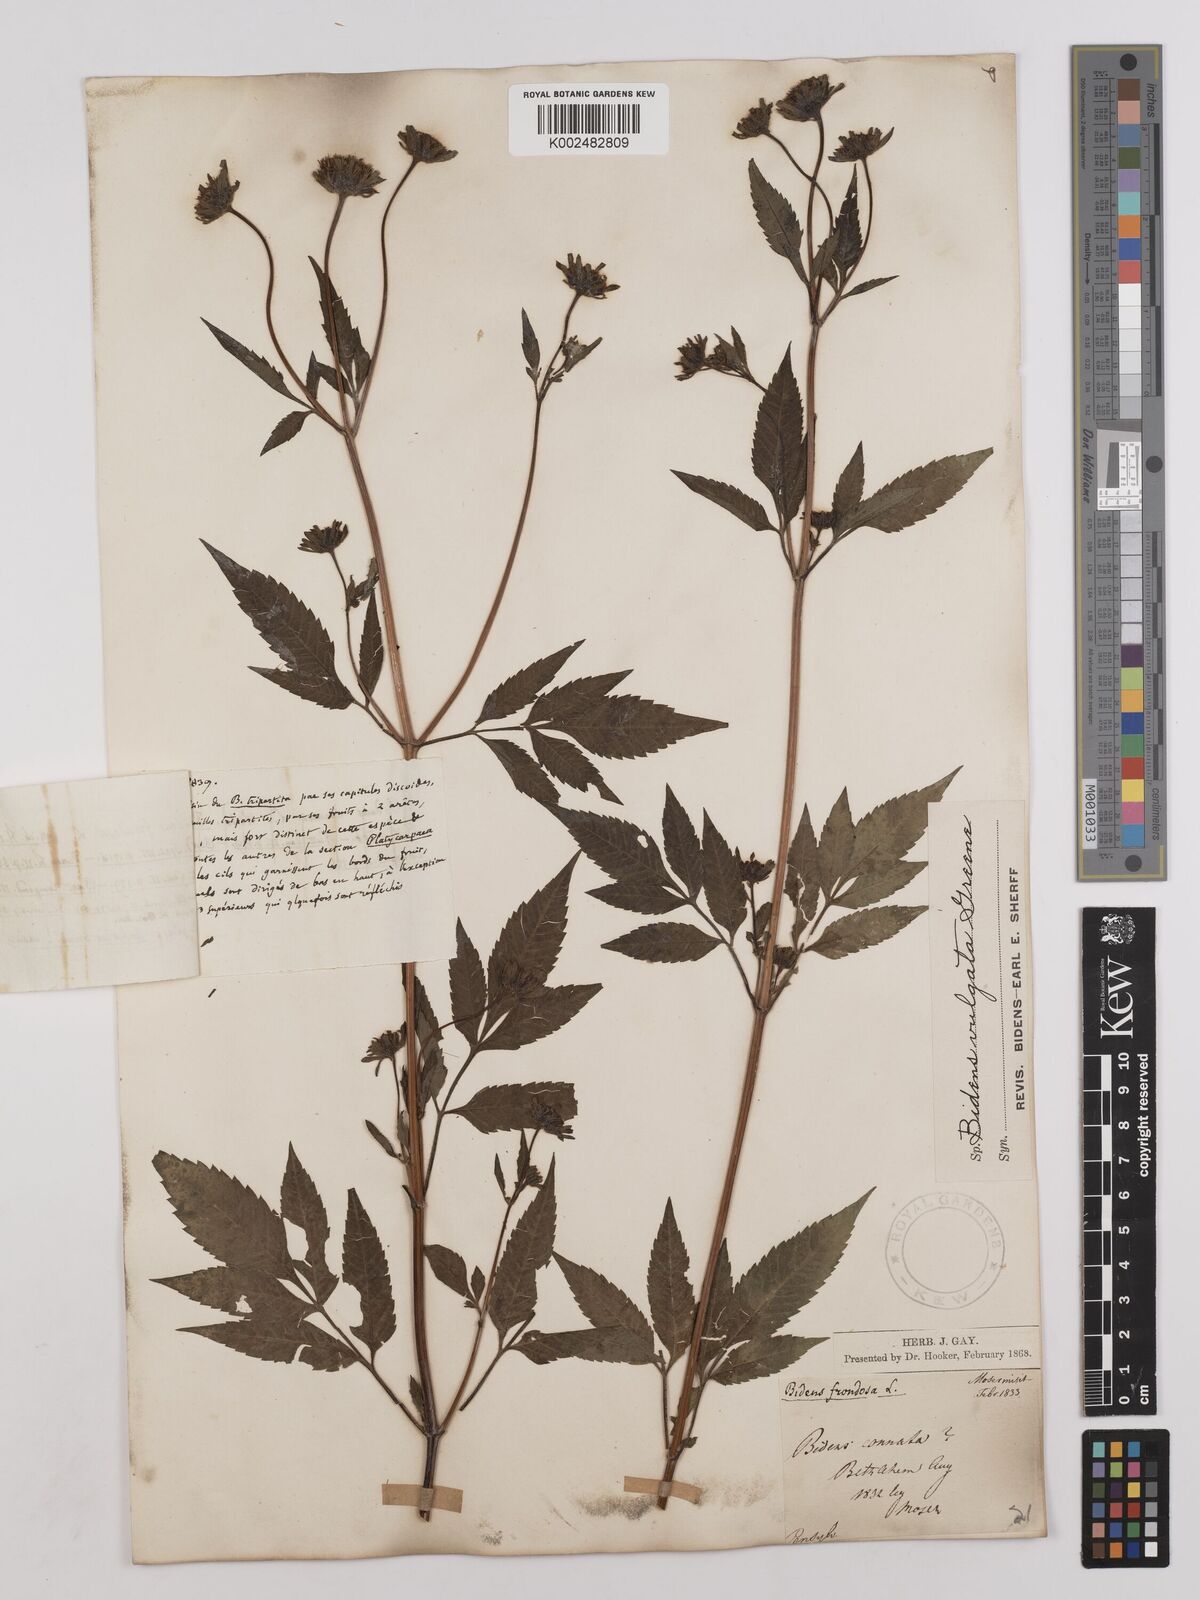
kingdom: Plantae
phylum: Tracheophyta
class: Magnoliopsida
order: Asterales
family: Asteraceae
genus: Bidens
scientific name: Bidens vulgata
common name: Tall beggarticks
